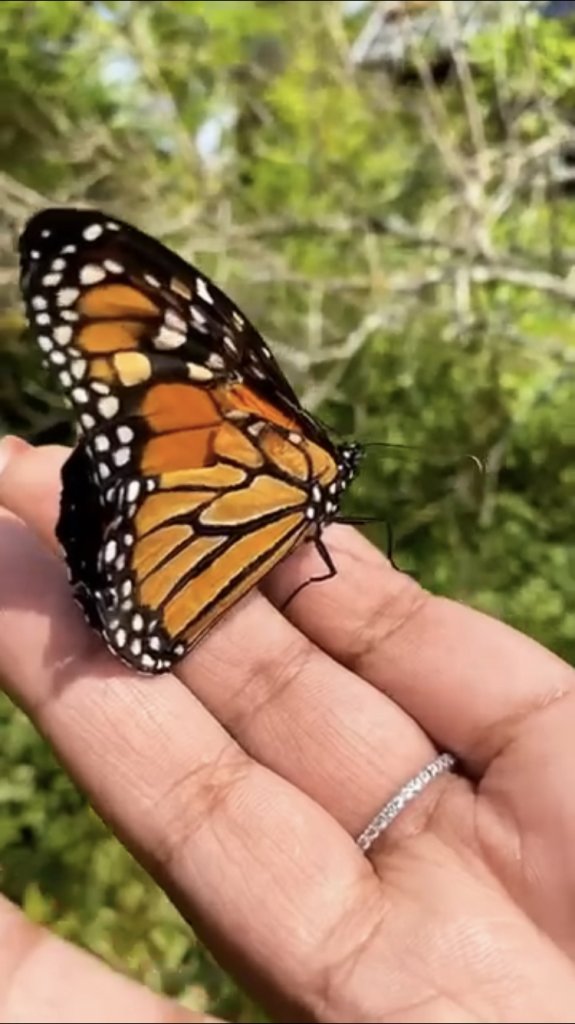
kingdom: Animalia
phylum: Arthropoda
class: Insecta
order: Lepidoptera
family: Nymphalidae
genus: Danaus
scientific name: Danaus plexippus
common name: Monarch
